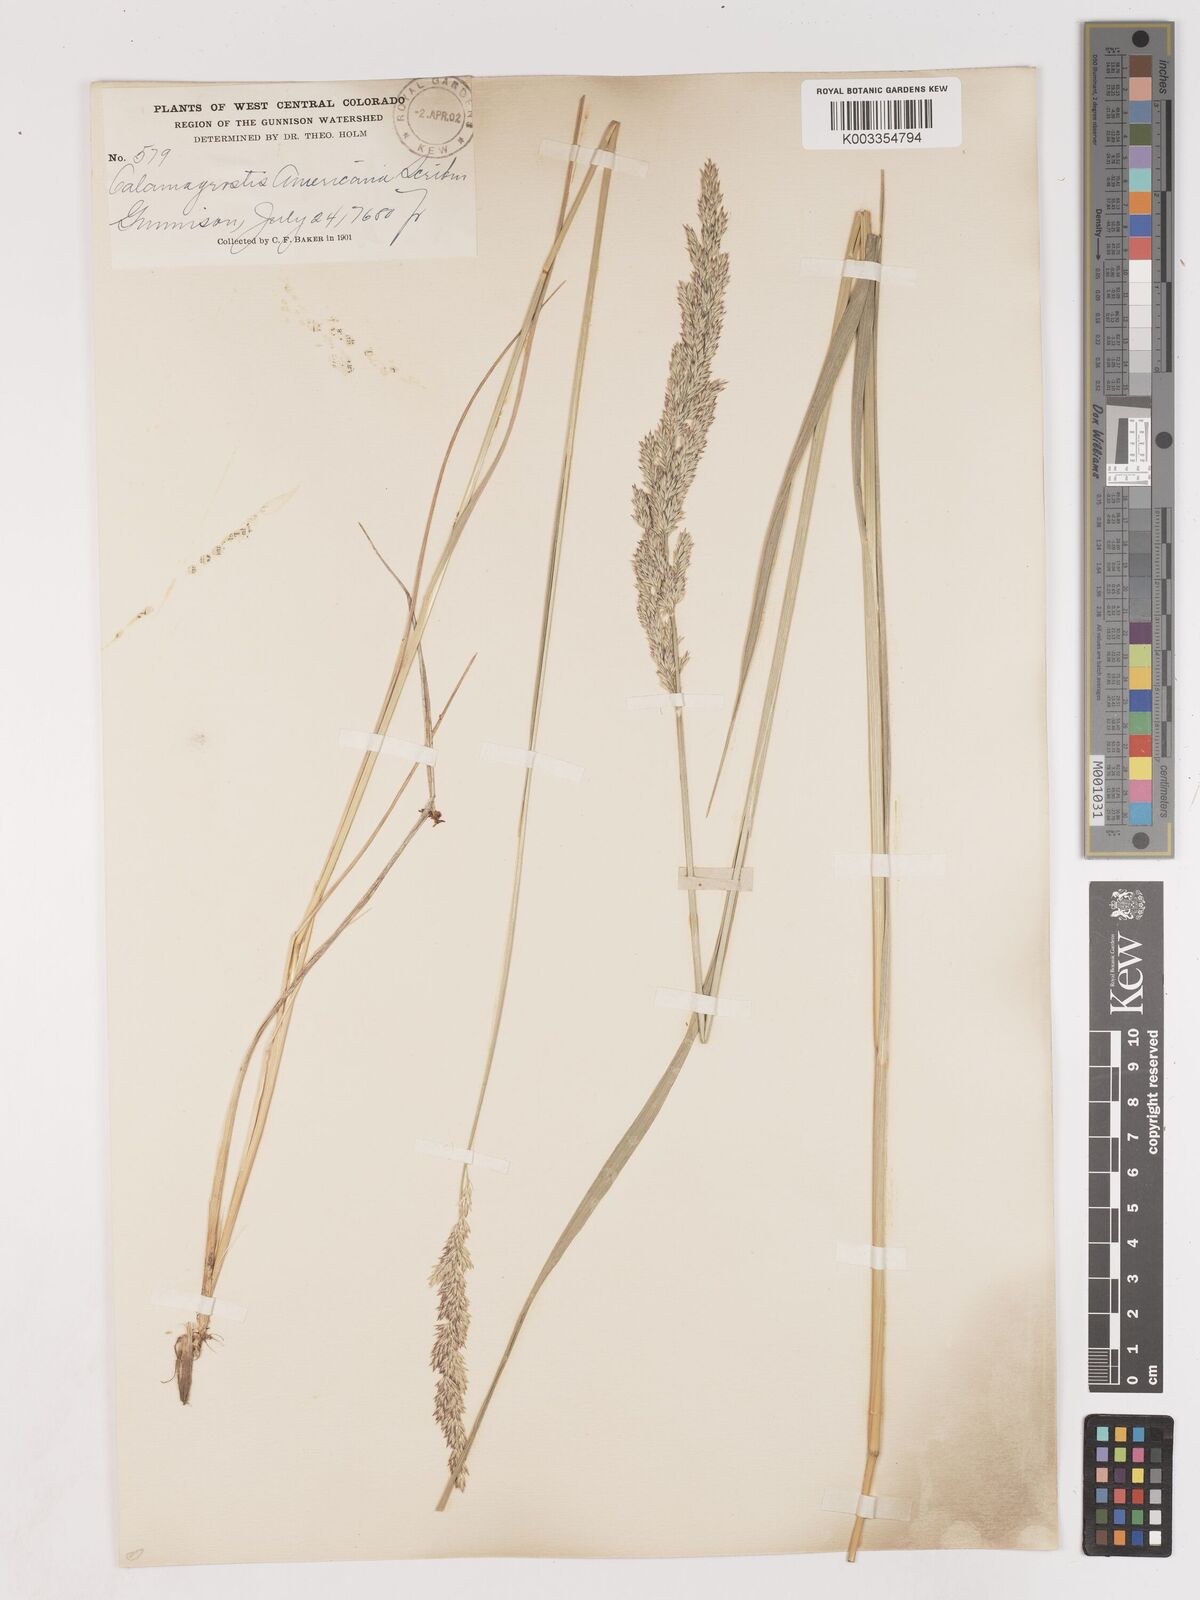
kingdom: Plantae
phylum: Tracheophyta
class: Liliopsida
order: Poales
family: Poaceae
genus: Cinnagrostis
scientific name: Cinnagrostis recta
